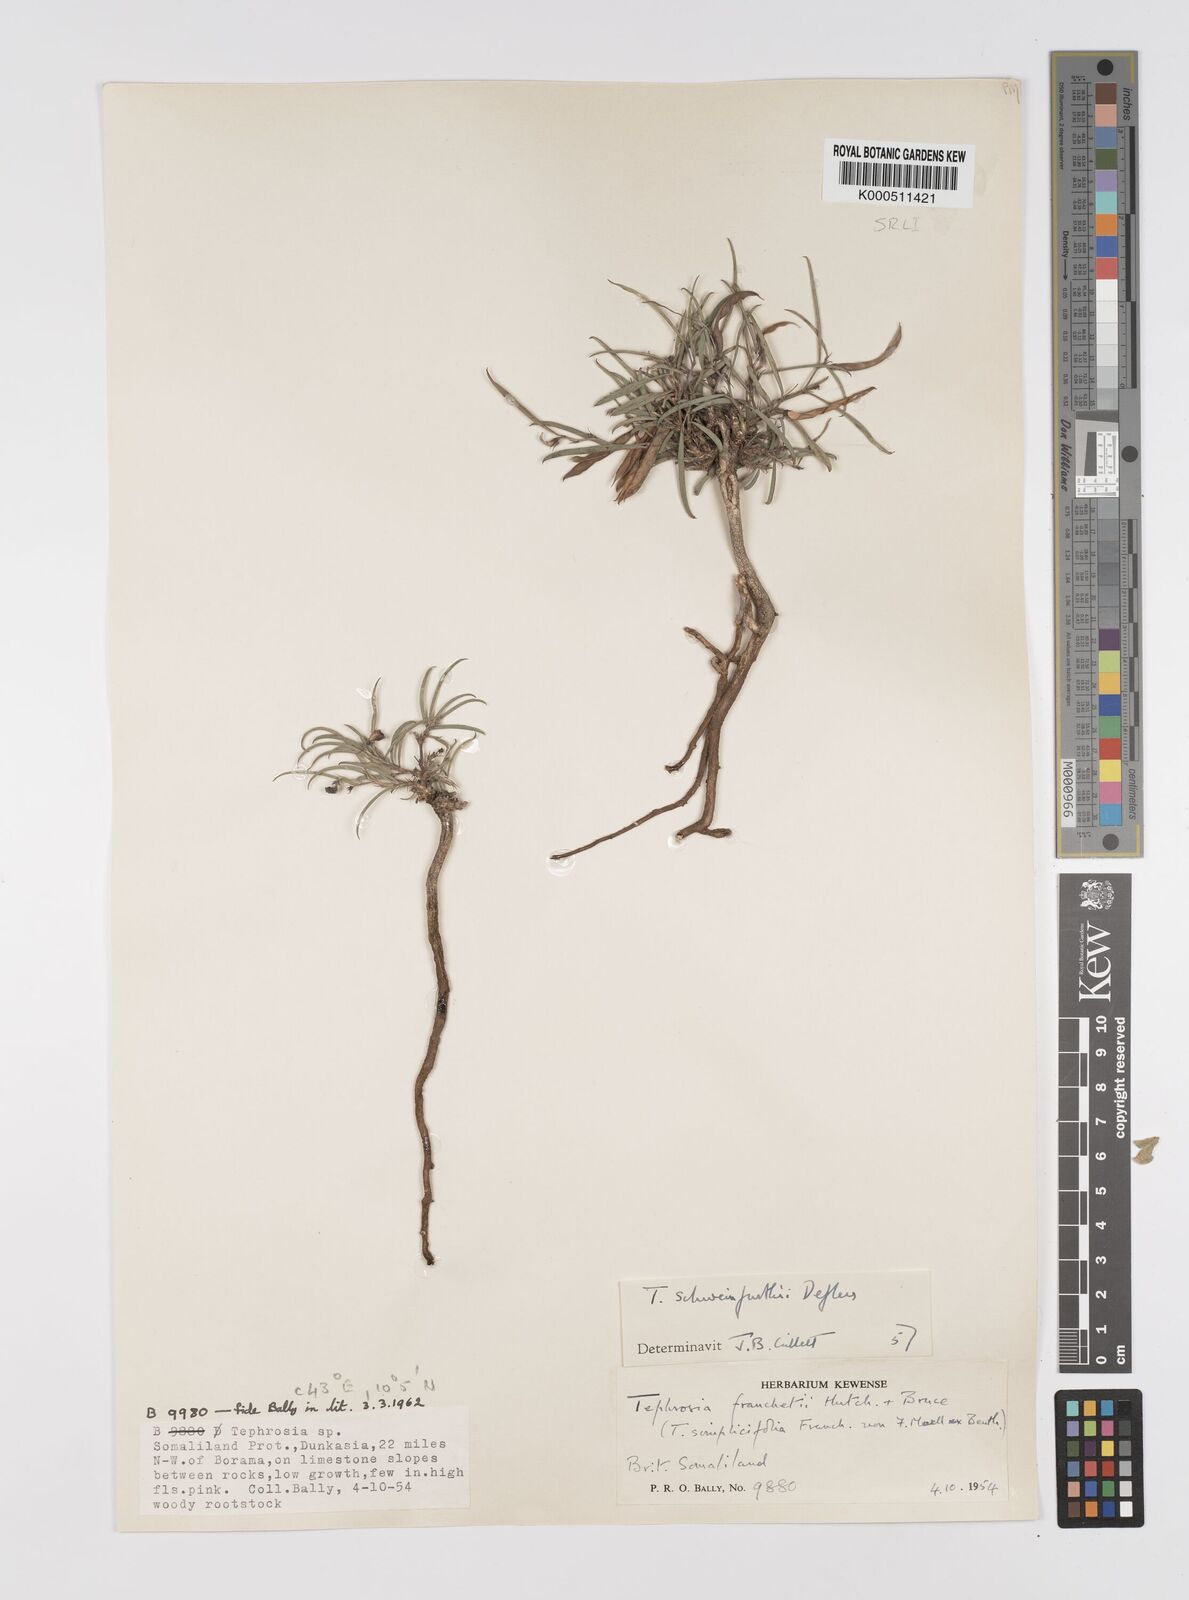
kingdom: Plantae
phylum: Tracheophyta
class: Magnoliopsida
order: Fabales
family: Fabaceae
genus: Tephrosia
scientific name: Tephrosia heterophylla
